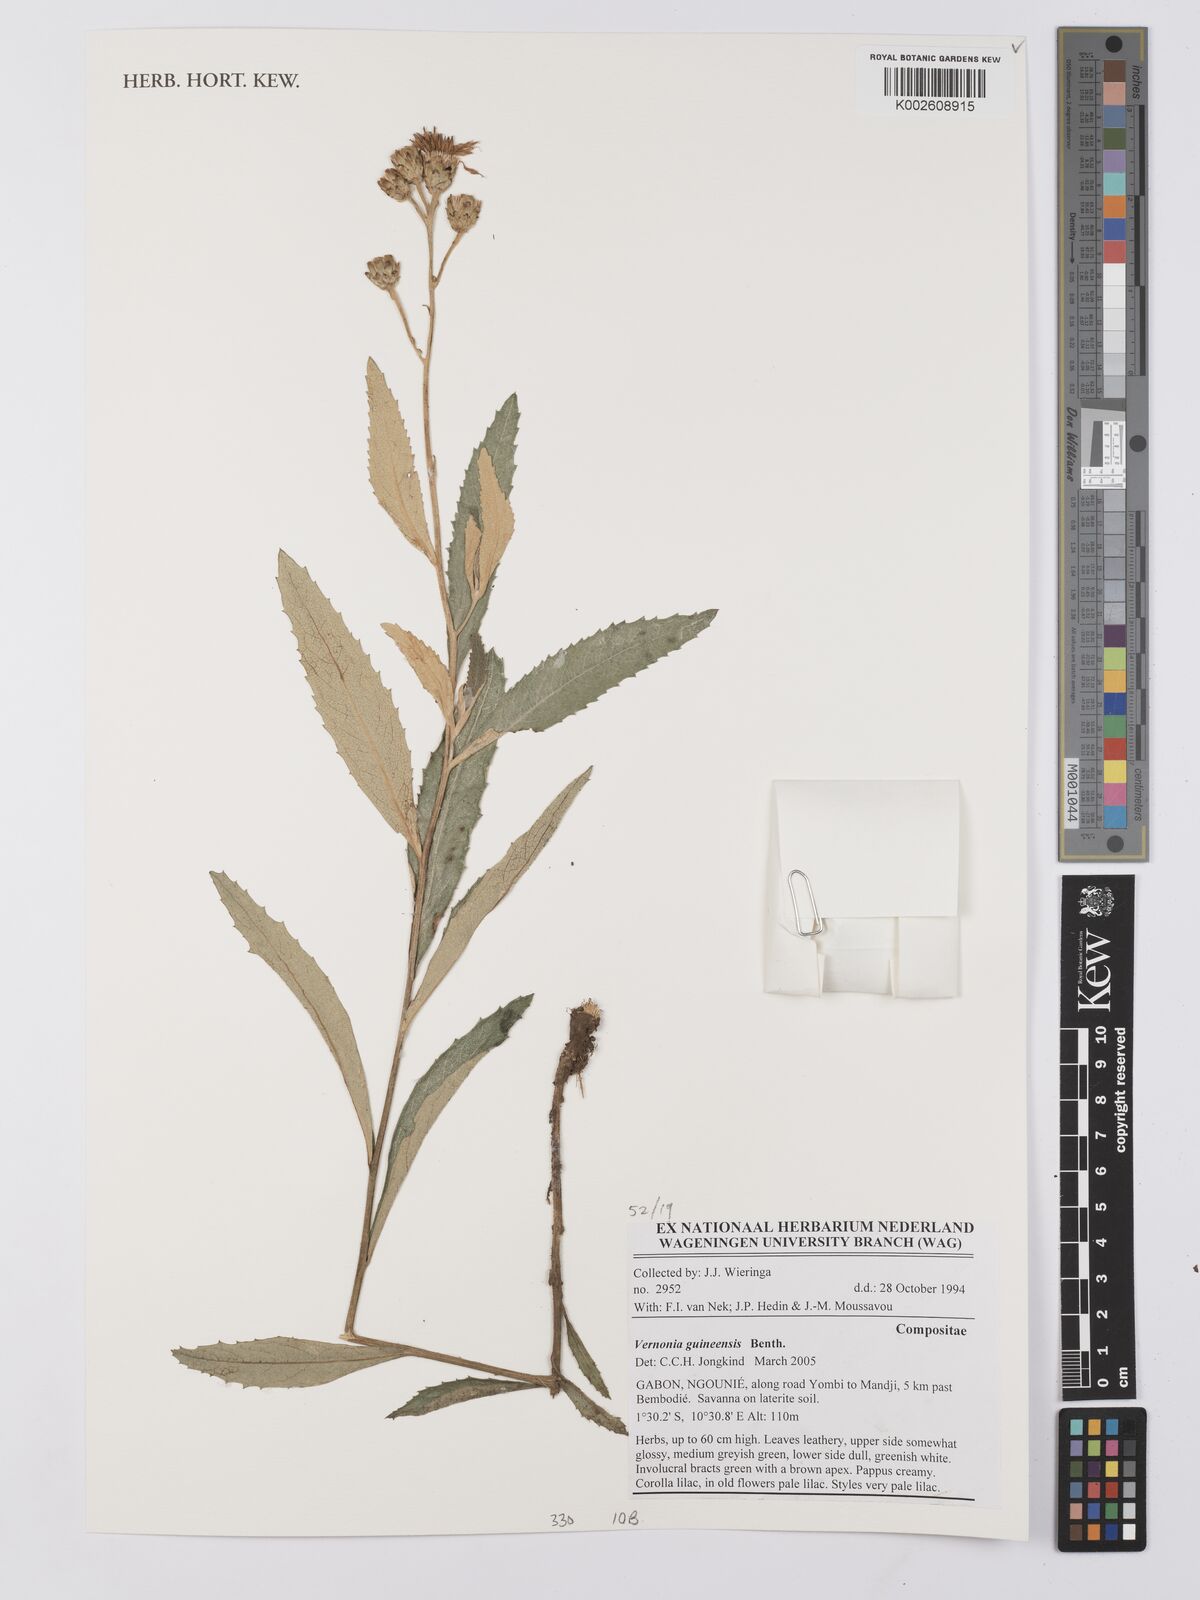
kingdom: Plantae
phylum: Tracheophyta
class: Magnoliopsida
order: Asterales
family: Asteraceae
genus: Baccharoides
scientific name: Baccharoides guineensis
